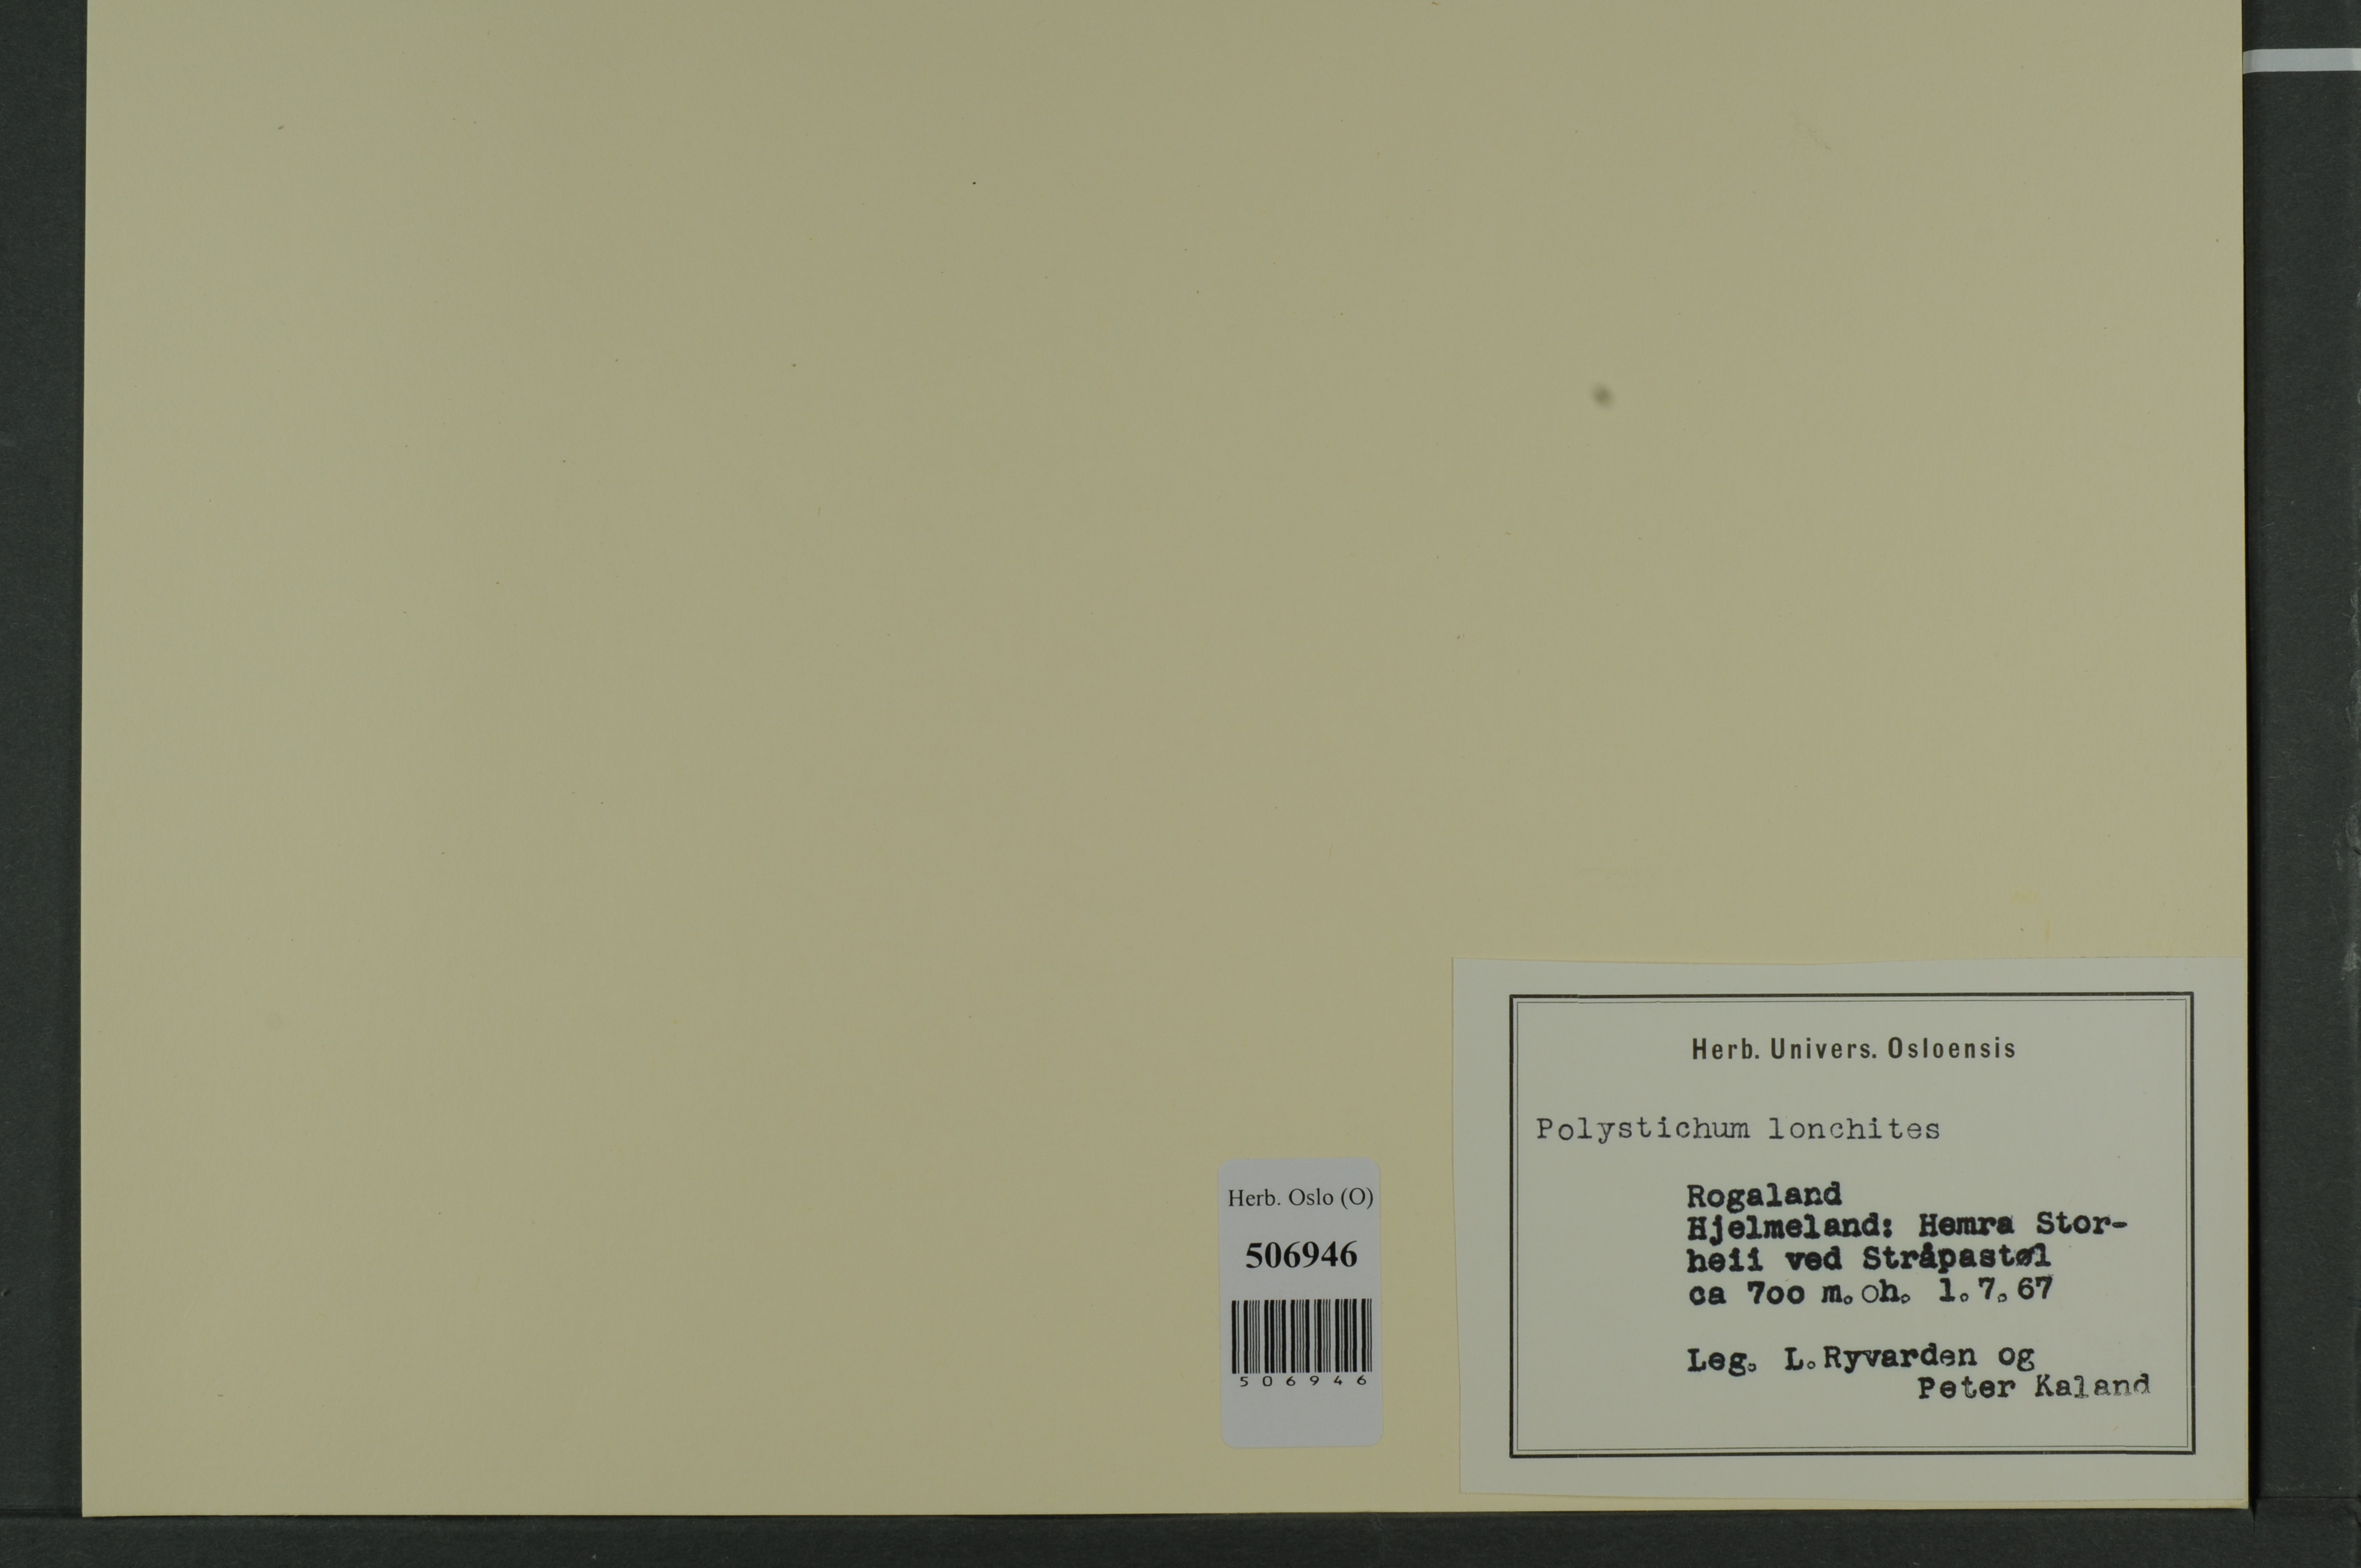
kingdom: Plantae
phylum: Tracheophyta
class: Polypodiopsida
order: Polypodiales
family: Dryopteridaceae
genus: Polystichum
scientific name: Polystichum lonchitis
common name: Holly fern
